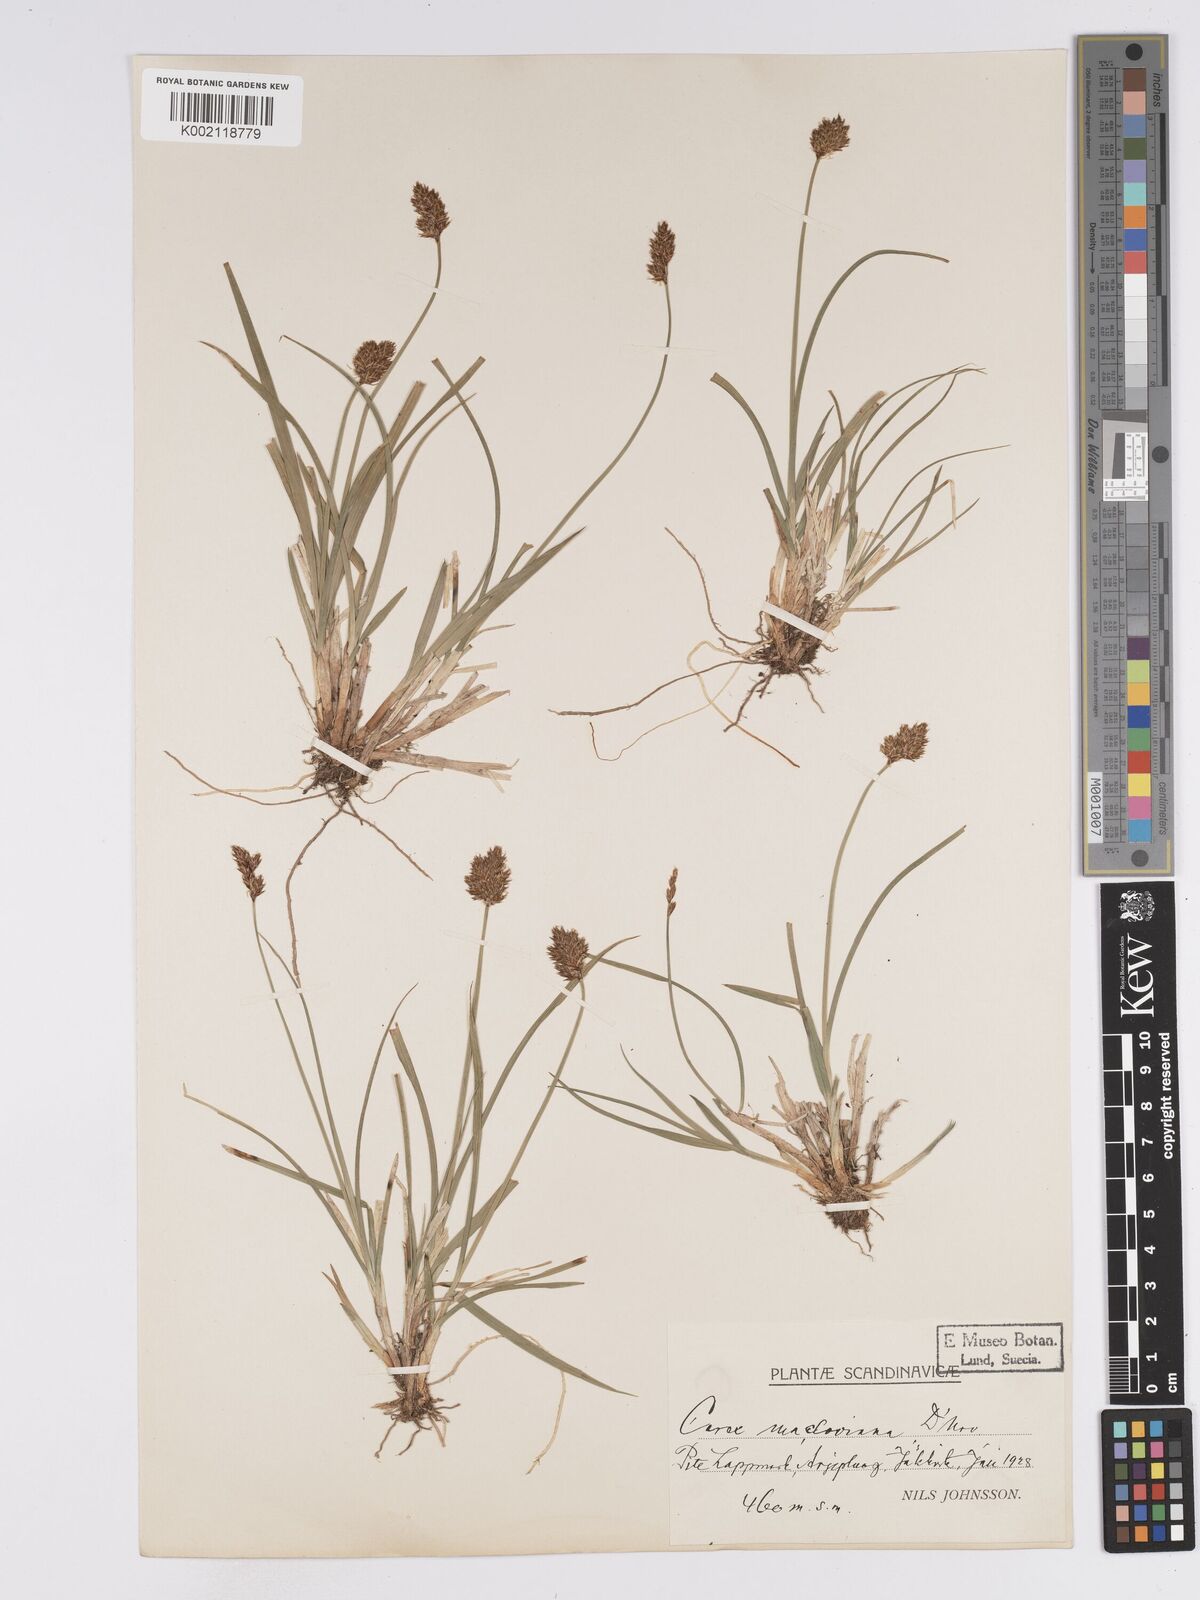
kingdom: Plantae
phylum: Tracheophyta
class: Liliopsida
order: Poales
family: Cyperaceae
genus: Carex
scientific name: Carex macloviana
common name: Falkland island sedge
